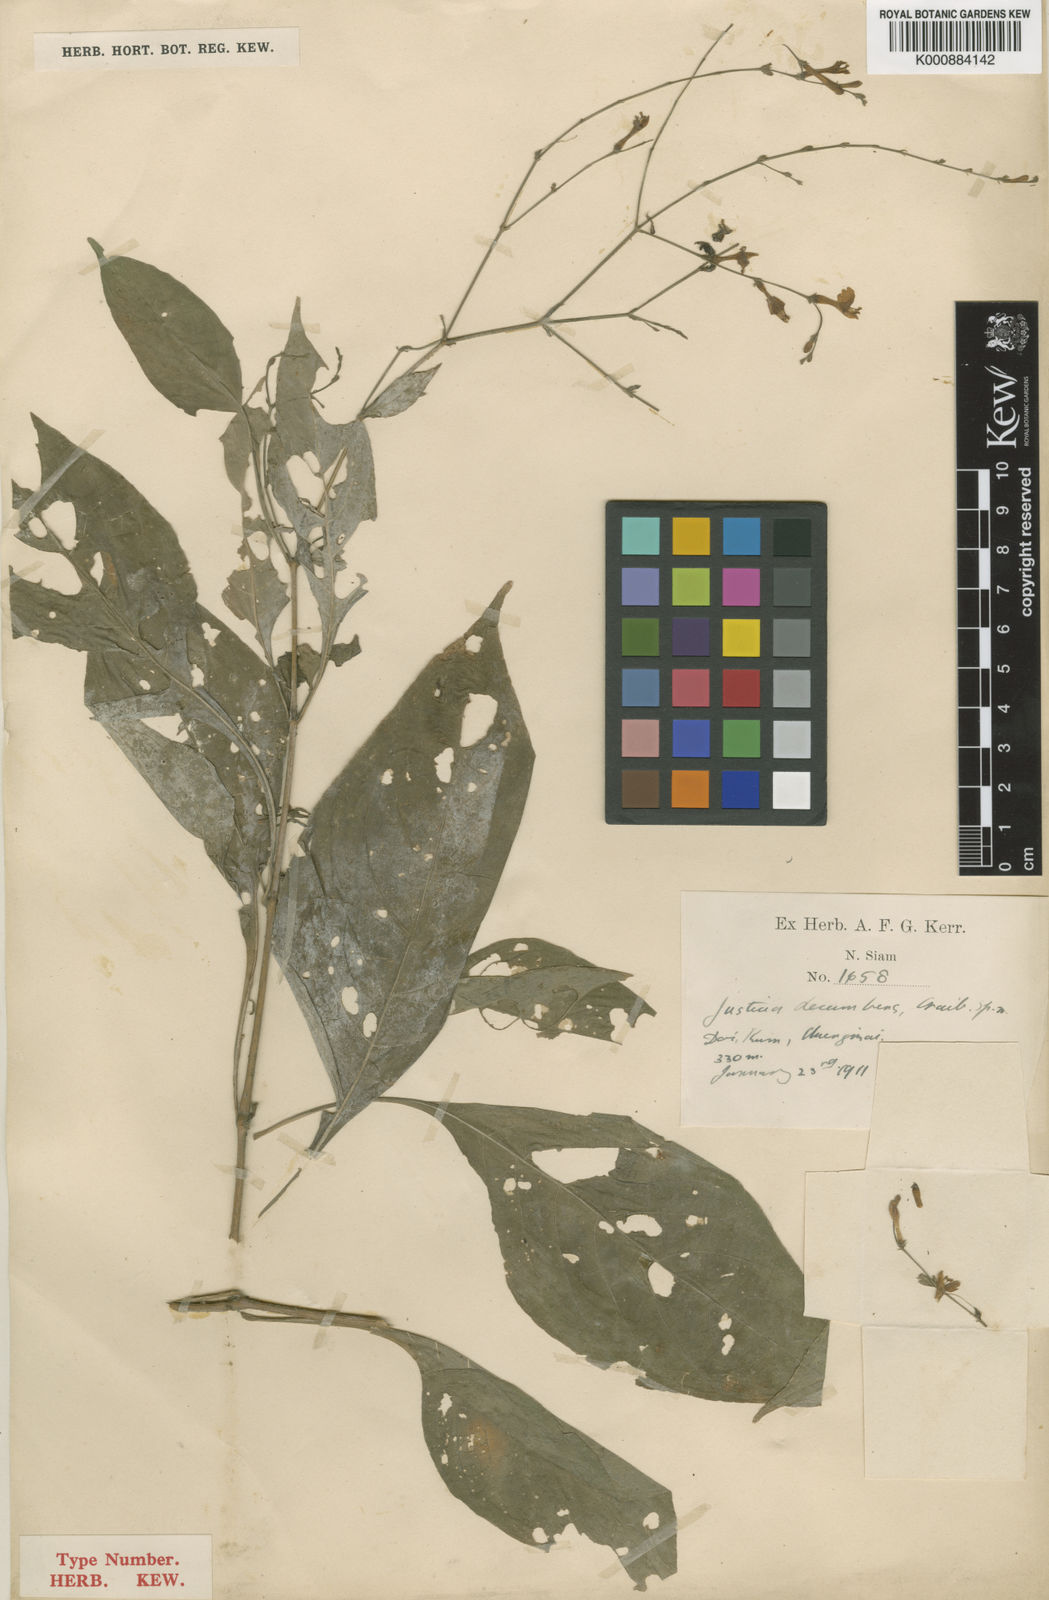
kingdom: Plantae
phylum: Tracheophyta
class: Magnoliopsida
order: Lamiales
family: Acanthaceae
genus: Justicia
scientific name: Justicia decumbens
